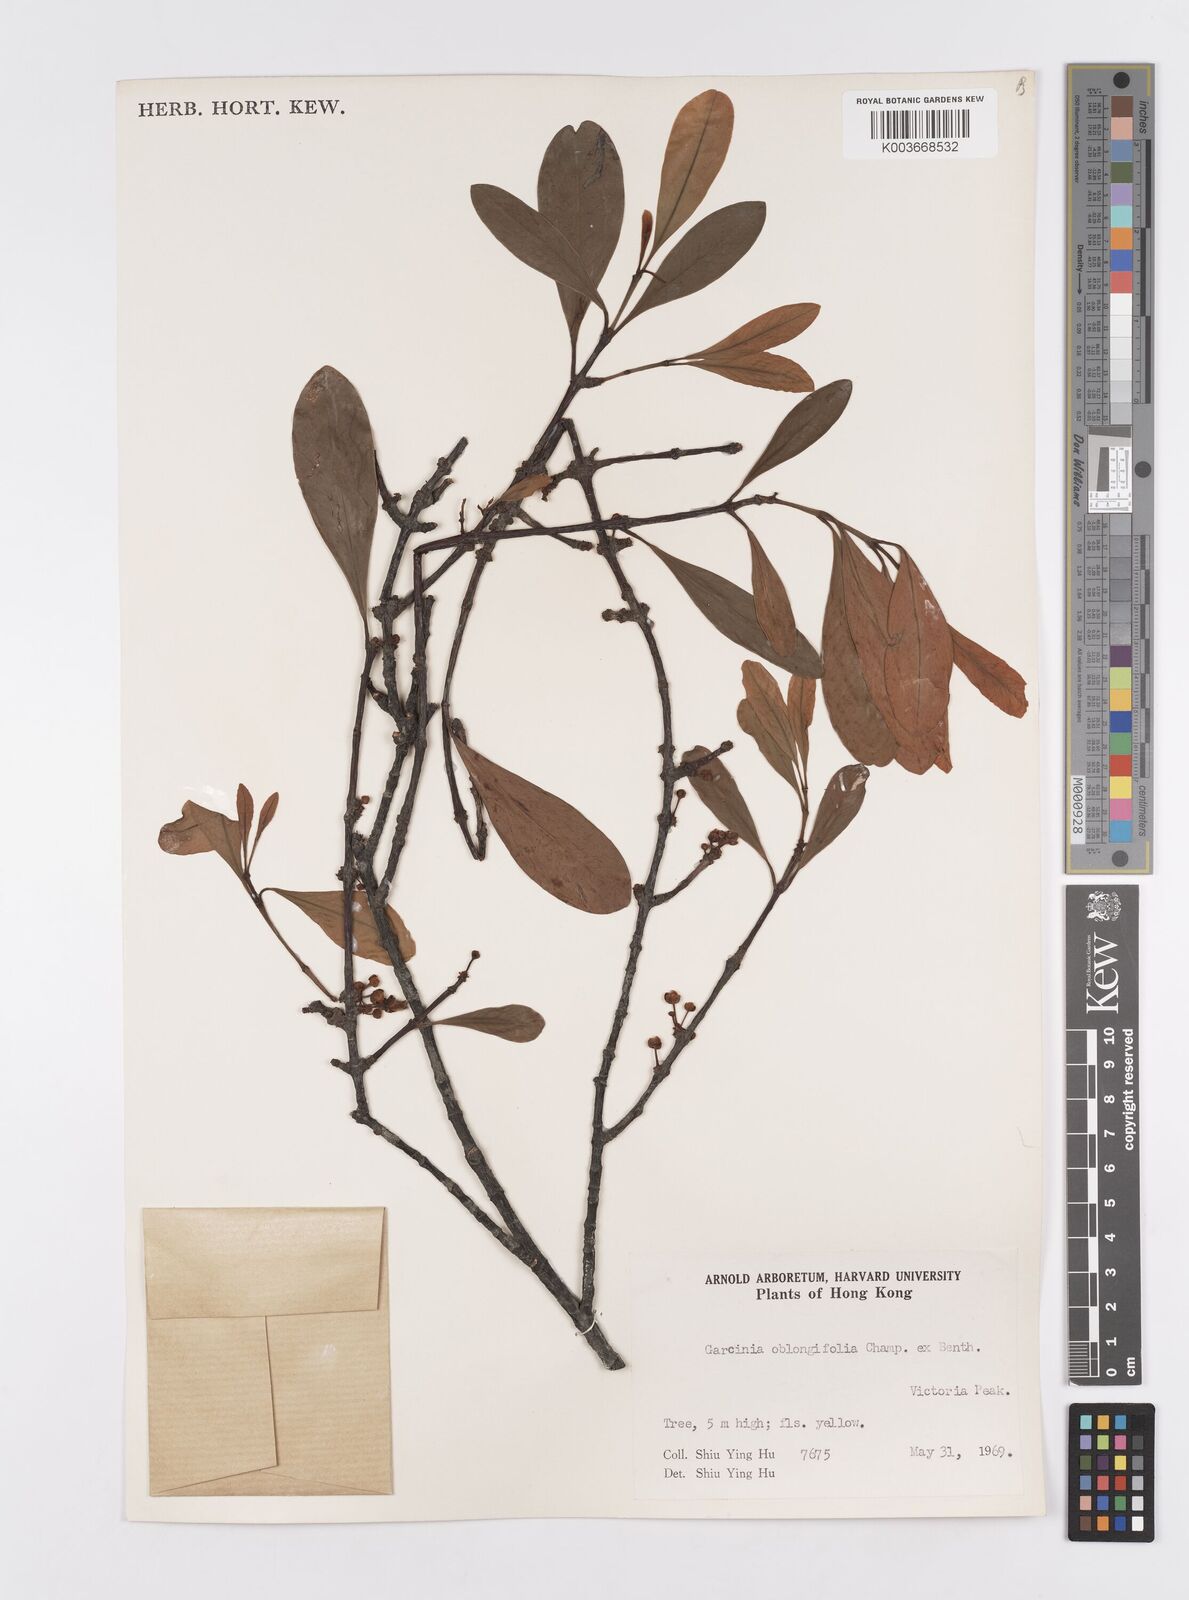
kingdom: Plantae
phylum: Tracheophyta
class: Magnoliopsida
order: Malpighiales
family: Clusiaceae
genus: Garcinia
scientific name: Garcinia oblongifolia
